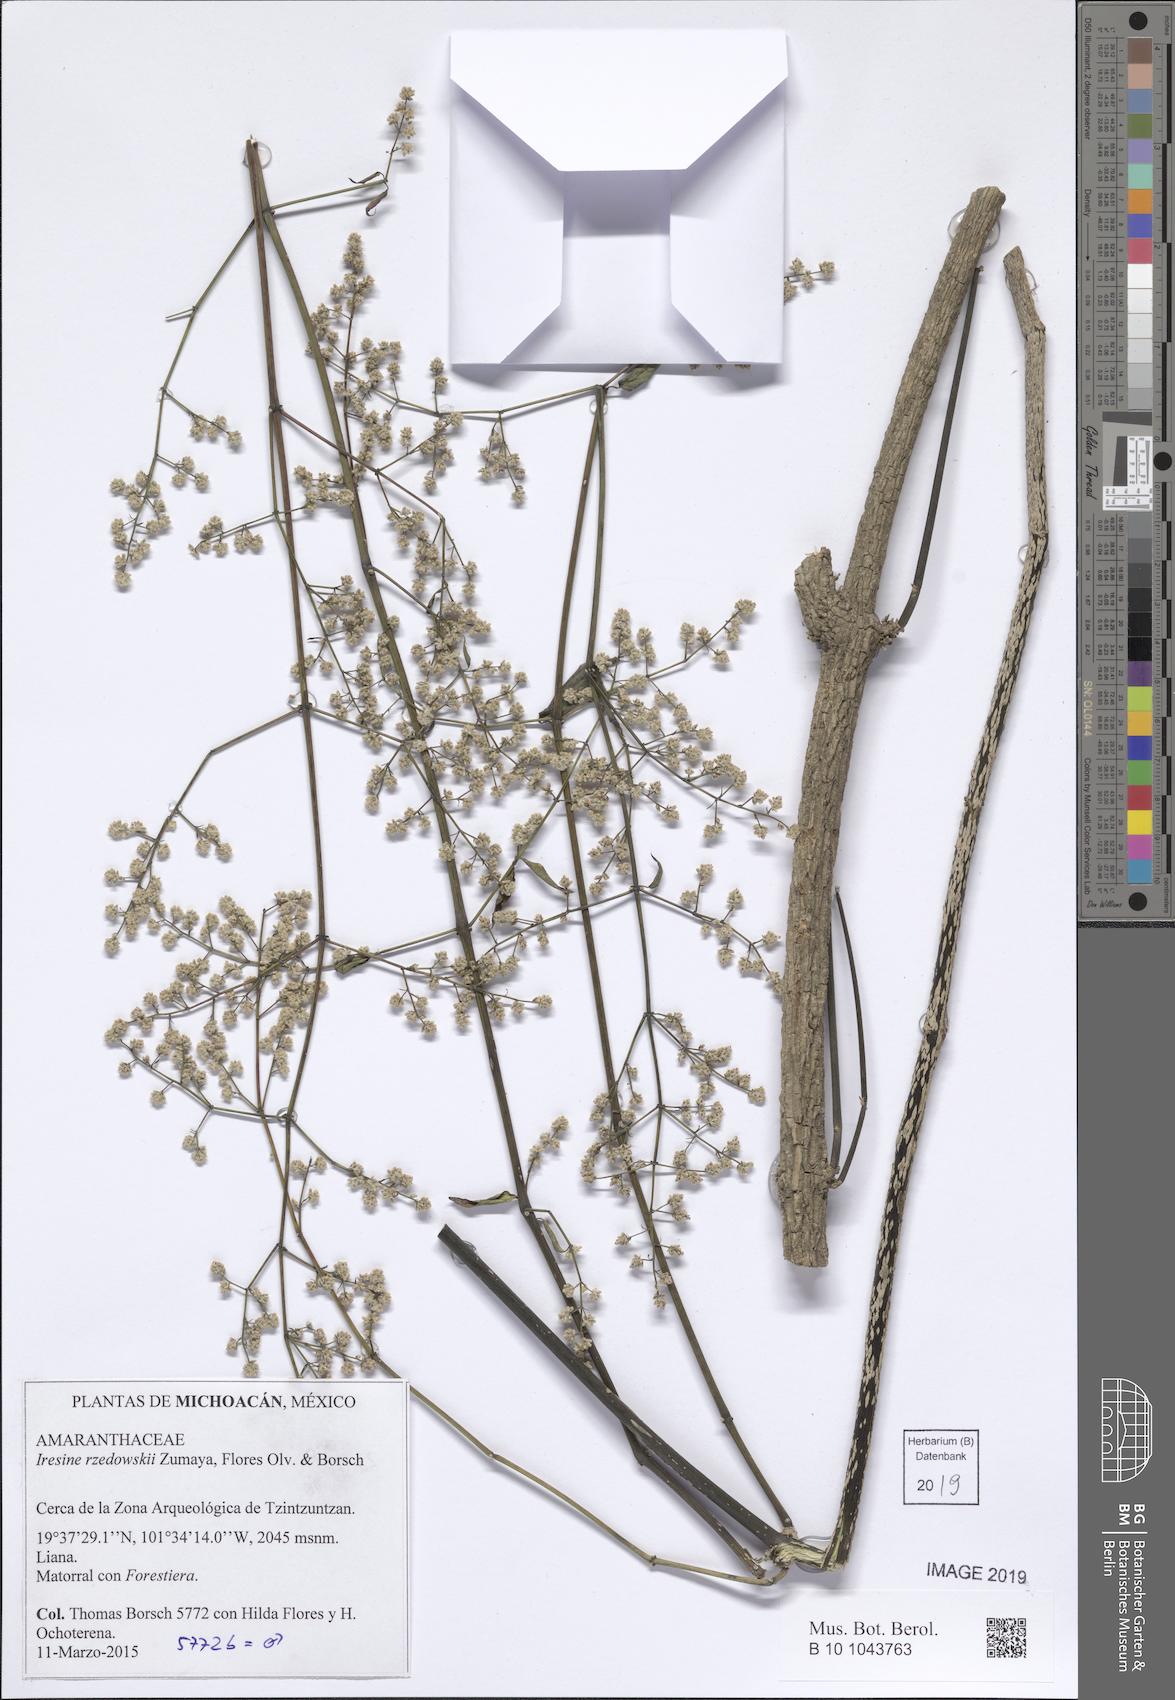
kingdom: Plantae
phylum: Tracheophyta
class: Magnoliopsida
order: Caryophyllales
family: Amaranthaceae
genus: Iresine
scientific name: Iresine rzedowskii
